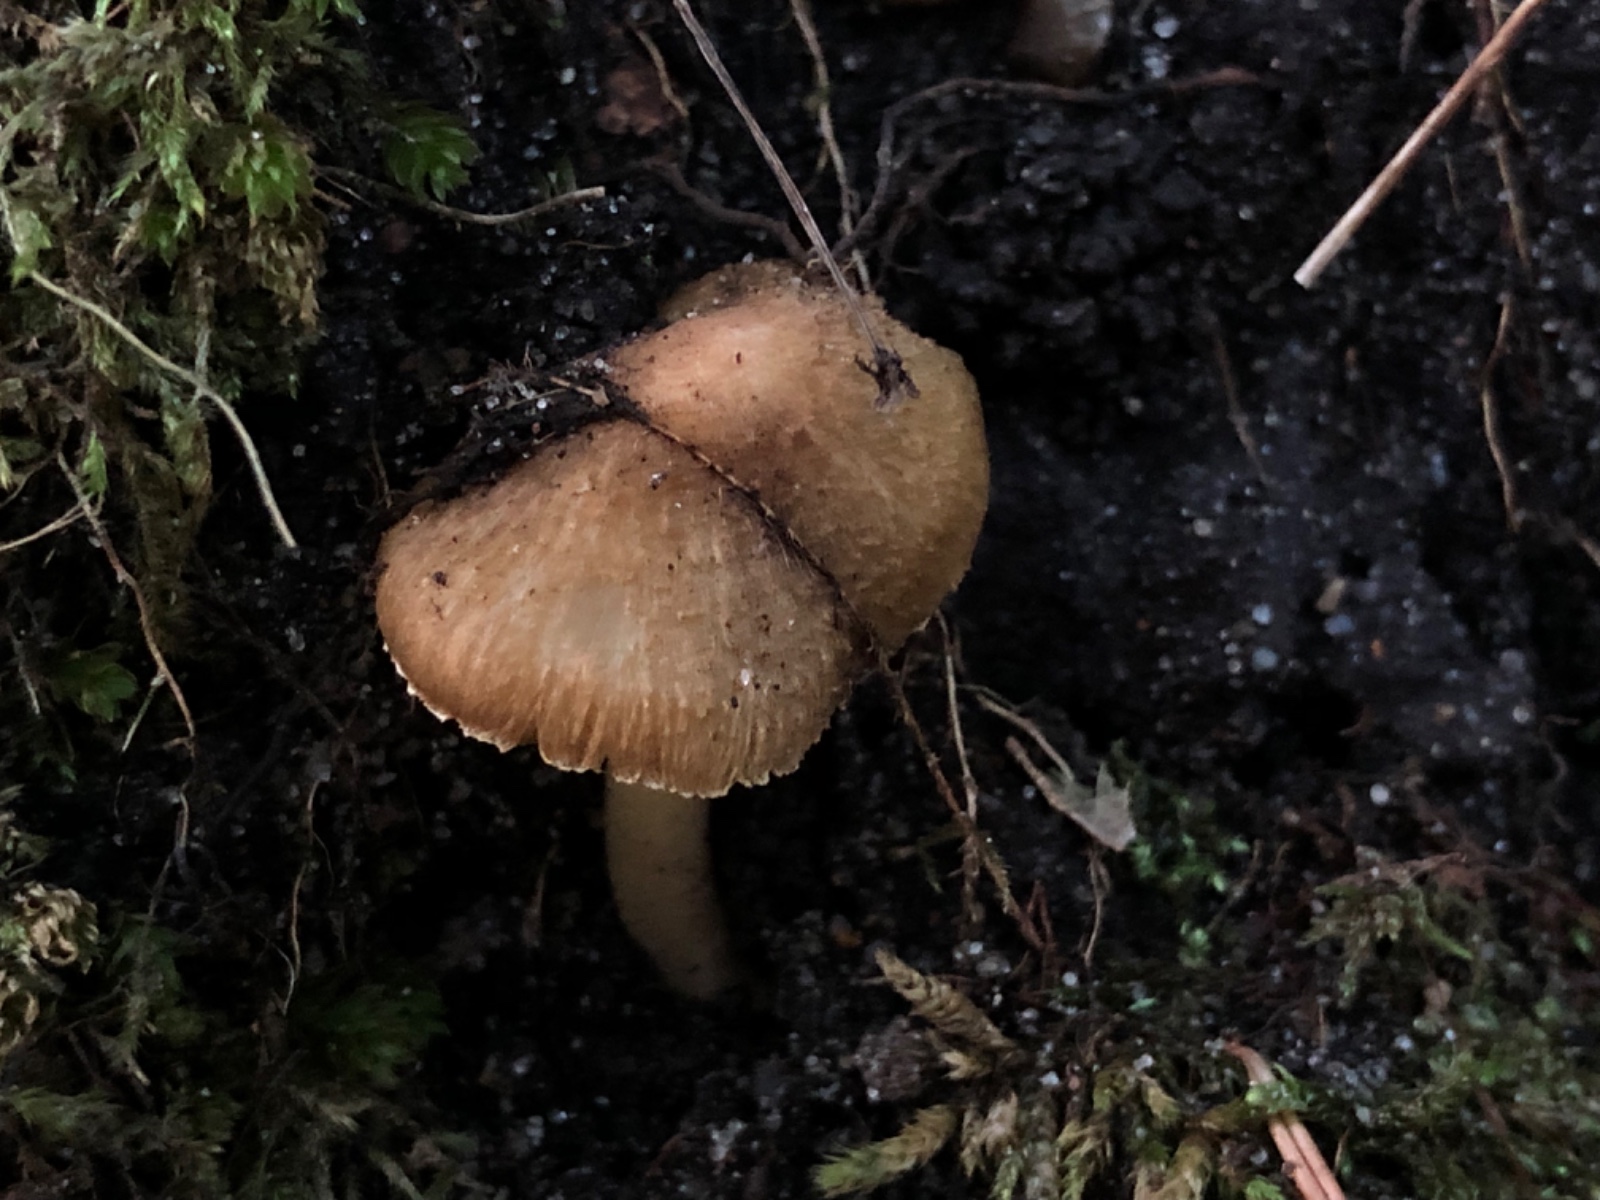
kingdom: Fungi
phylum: Basidiomycota
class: Agaricomycetes
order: Agaricales
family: Inocybaceae
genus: Inocybe
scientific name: Inocybe
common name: trævlhat
